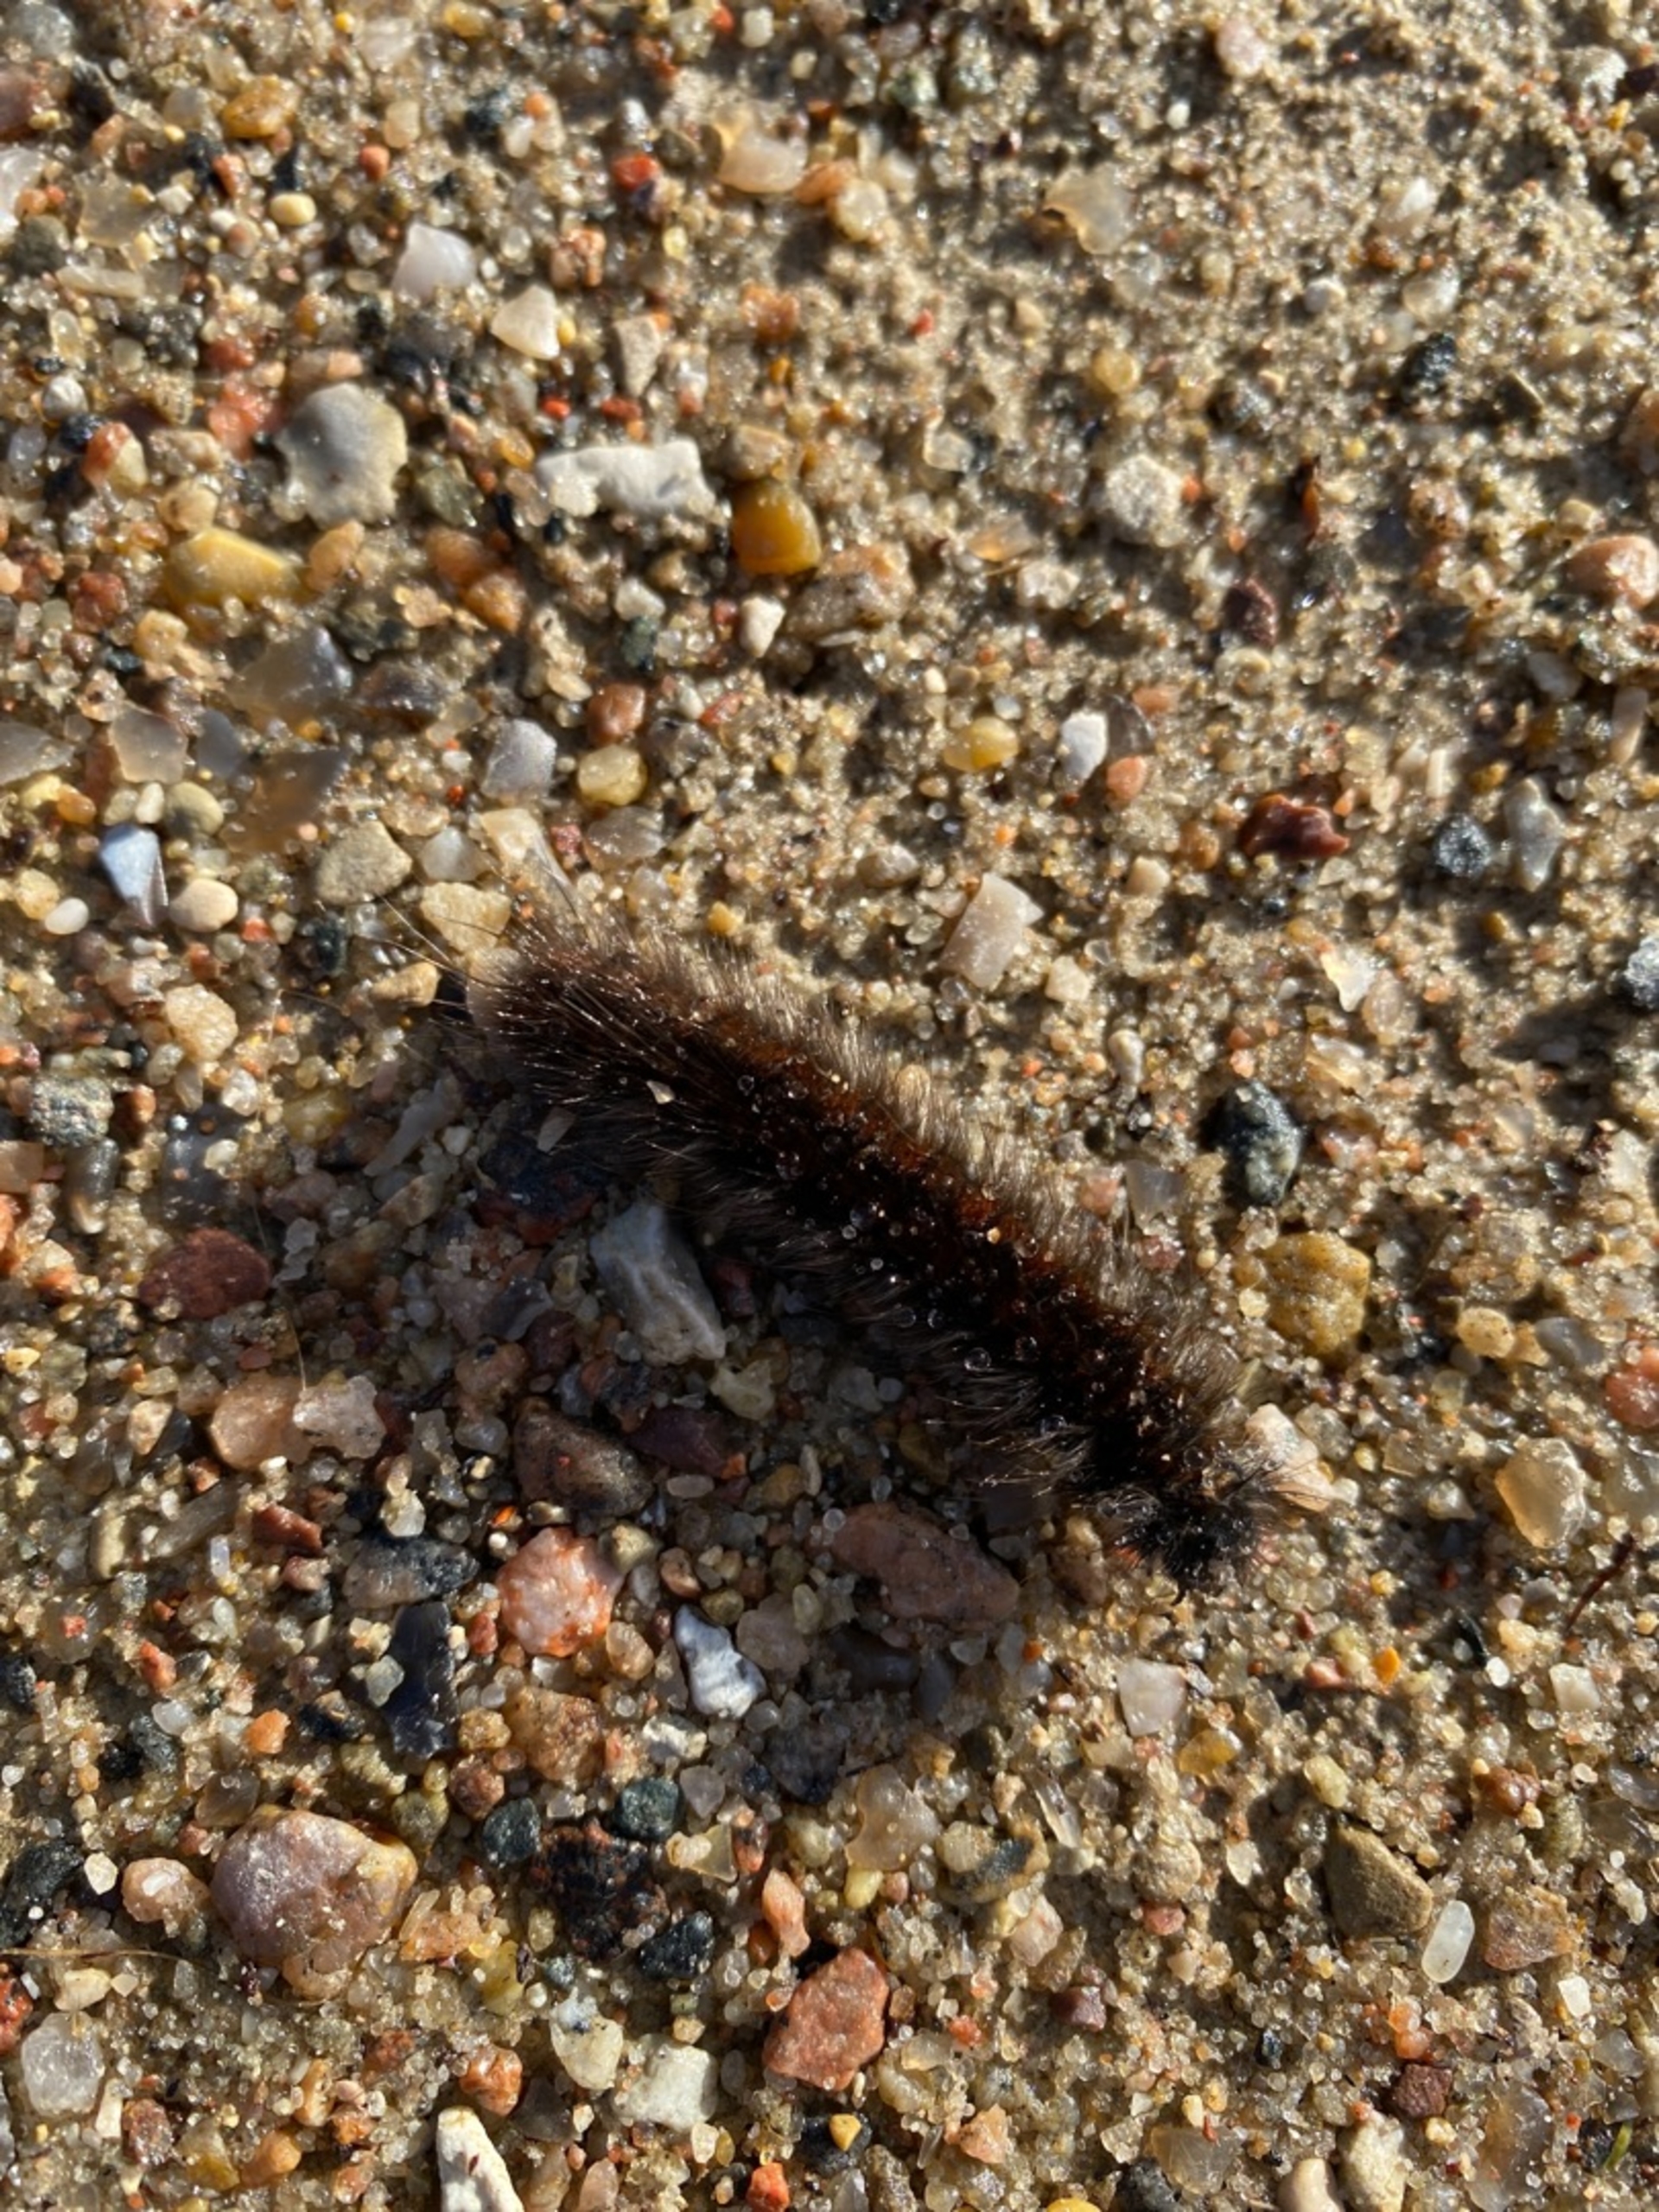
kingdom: Animalia
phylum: Arthropoda
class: Insecta
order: Lepidoptera
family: Lasiocampidae
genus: Macrothylacia
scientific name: Macrothylacia rubi
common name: Brombærspinder
